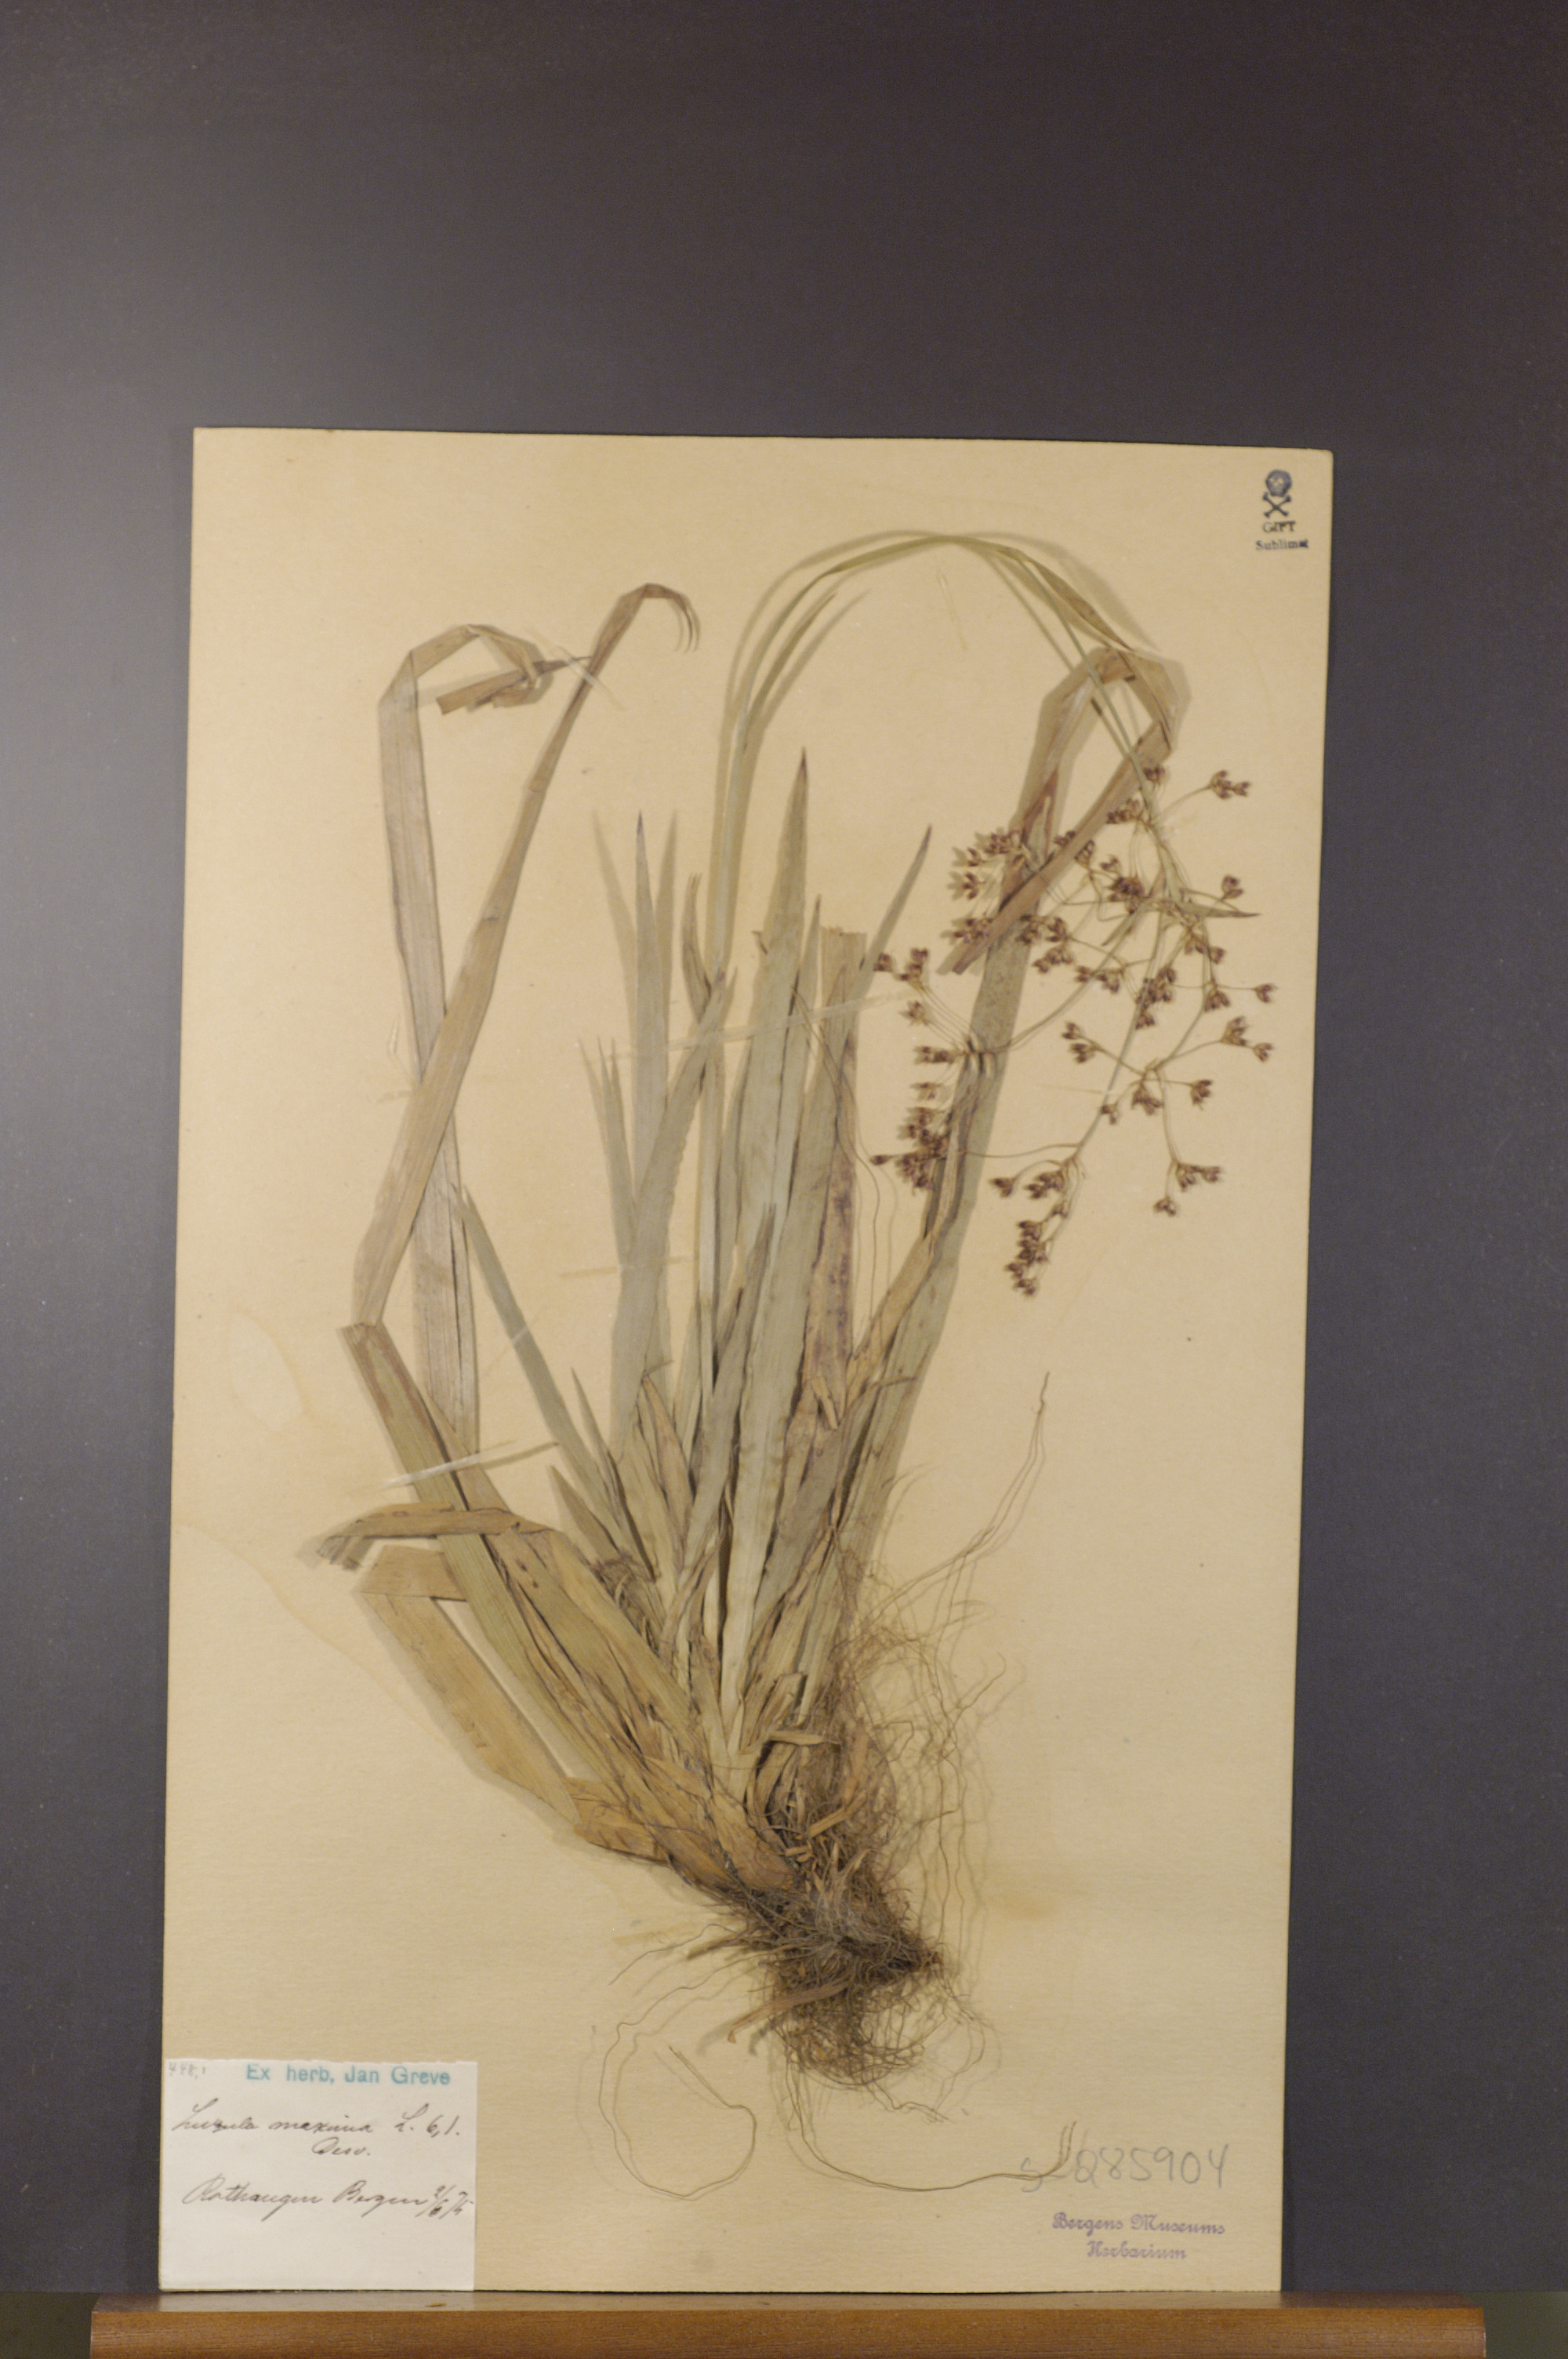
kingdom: Plantae
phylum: Tracheophyta
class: Liliopsida
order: Poales
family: Juncaceae
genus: Luzula
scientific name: Luzula sylvatica
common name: Great wood-rush
